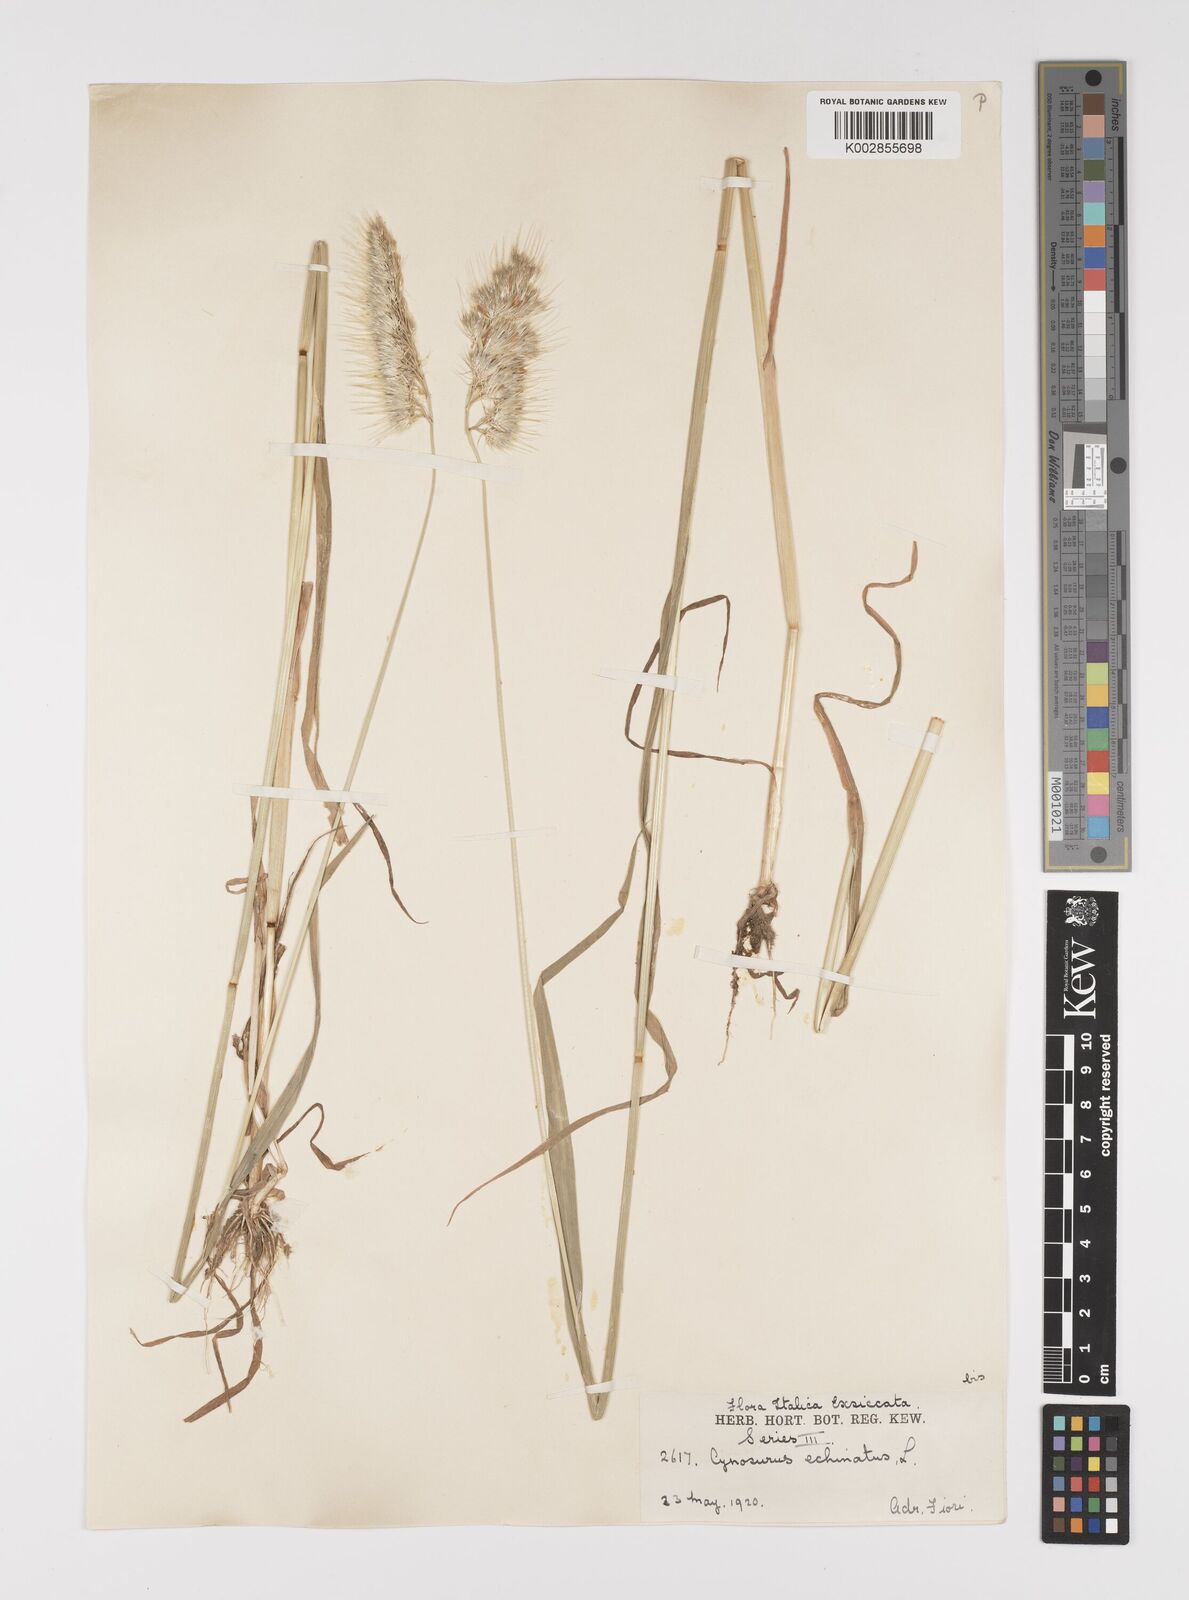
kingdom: Plantae
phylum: Tracheophyta
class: Liliopsida
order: Poales
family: Poaceae
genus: Cynosurus
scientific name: Cynosurus echinatus
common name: Rough dog's-tail
